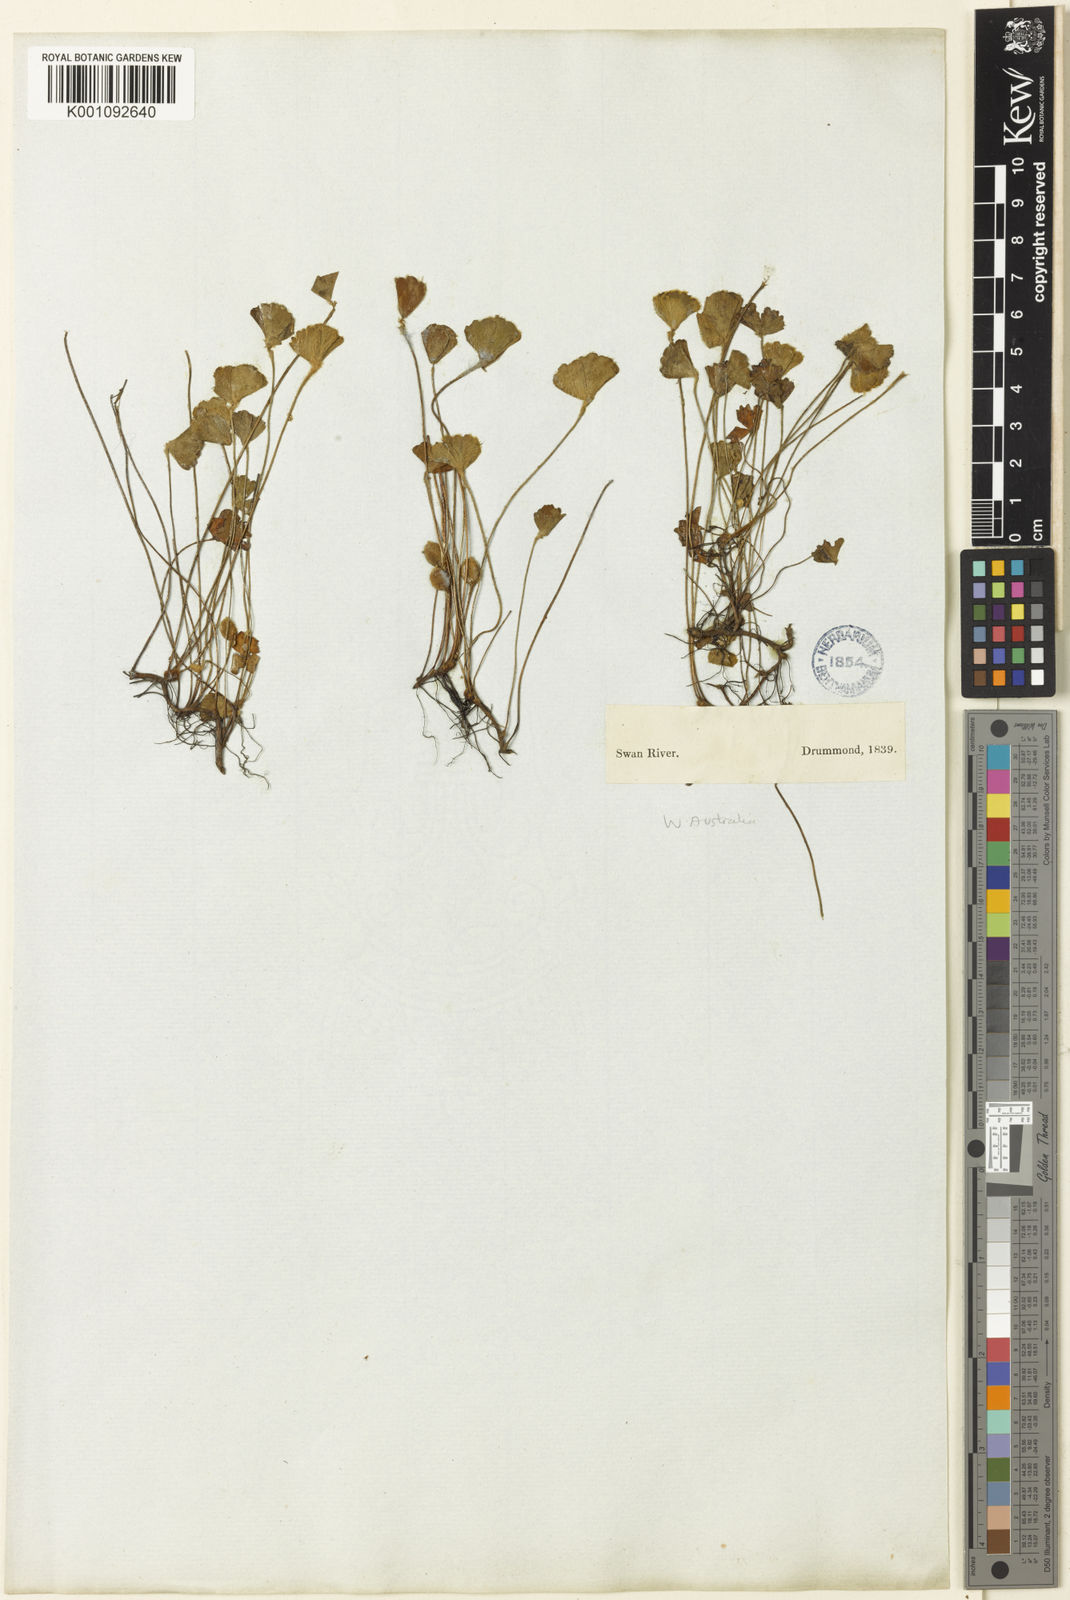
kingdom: Plantae
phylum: Tracheophyta
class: Polypodiopsida
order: Salviniales
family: Marsileaceae
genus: Marsilea
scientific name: Marsilea drummondii
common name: Nardoo
